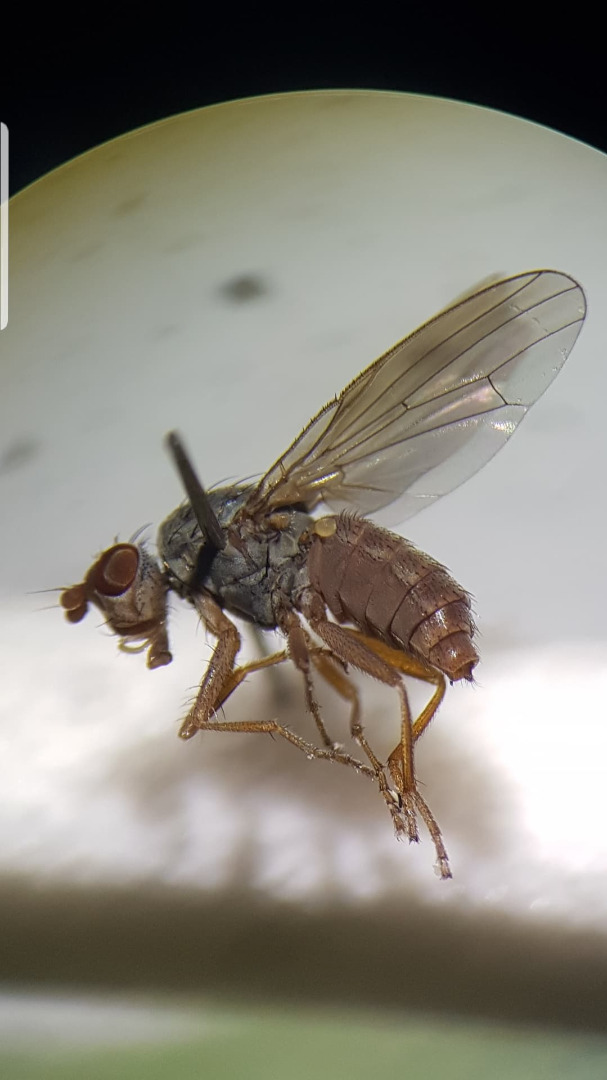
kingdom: Animalia
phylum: Arthropoda
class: Insecta
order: Diptera
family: Heleomyzidae
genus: Tephrochlaena
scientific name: Tephrochlaena halterata
